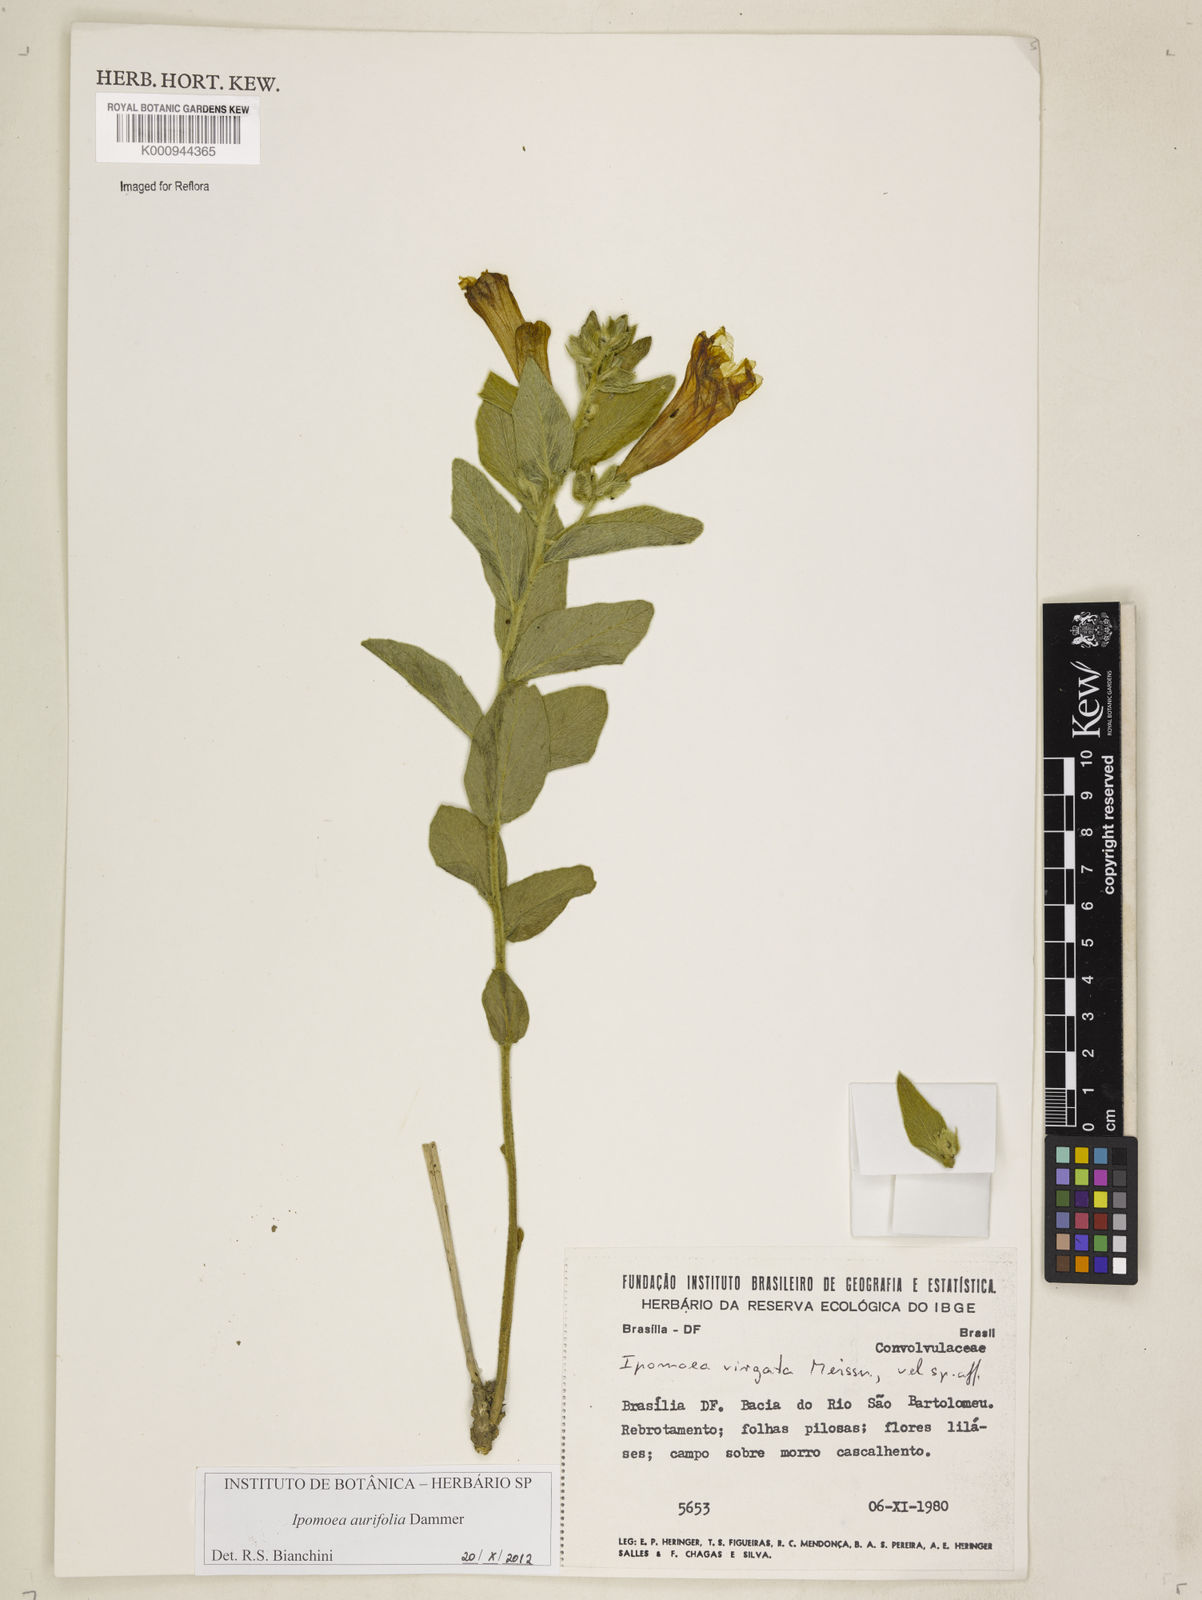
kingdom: Plantae
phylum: Tracheophyta
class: Magnoliopsida
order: Solanales
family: Convolvulaceae
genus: Ipomoea
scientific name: Ipomoea aurifolia
